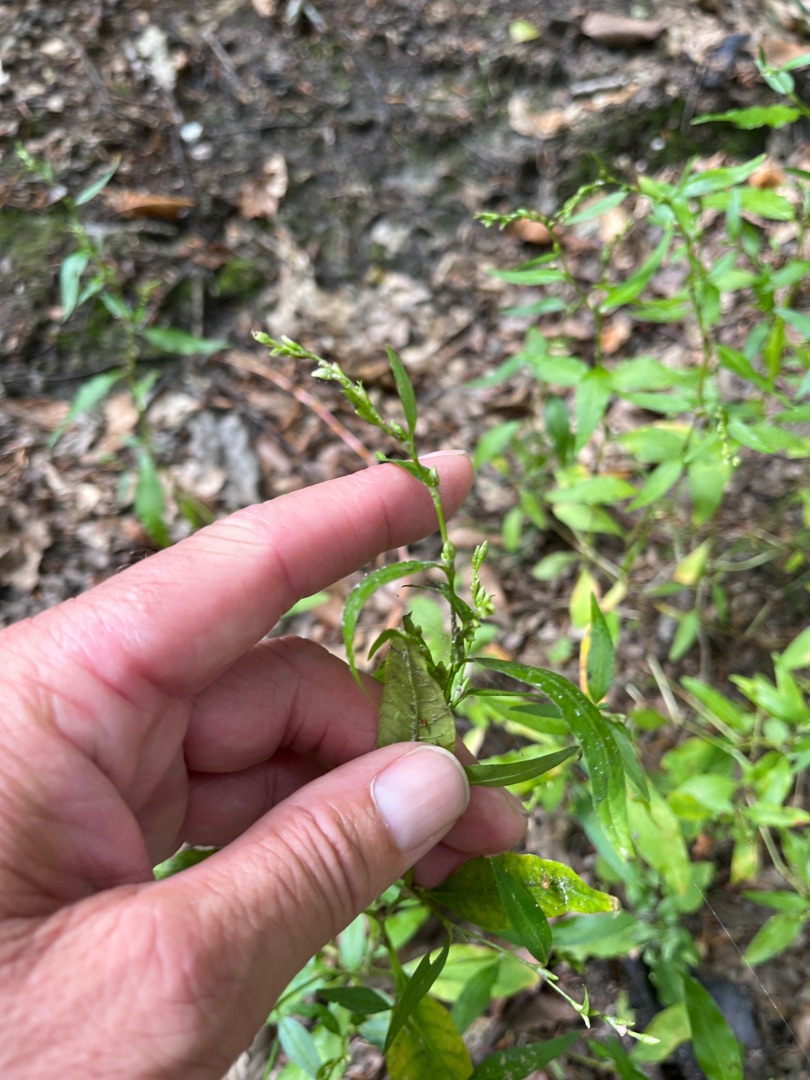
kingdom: Plantae
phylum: Tracheophyta
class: Magnoliopsida
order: Caryophyllales
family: Polygonaceae
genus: Persicaria
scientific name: Persicaria hydropiper
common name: Bidende pileurt
